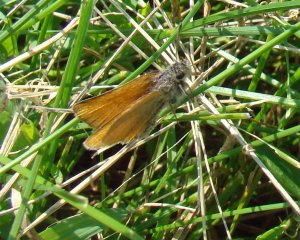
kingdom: Animalia
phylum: Arthropoda
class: Insecta
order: Lepidoptera
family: Hesperiidae
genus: Thymelicus
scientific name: Thymelicus lineola
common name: European Skipper
